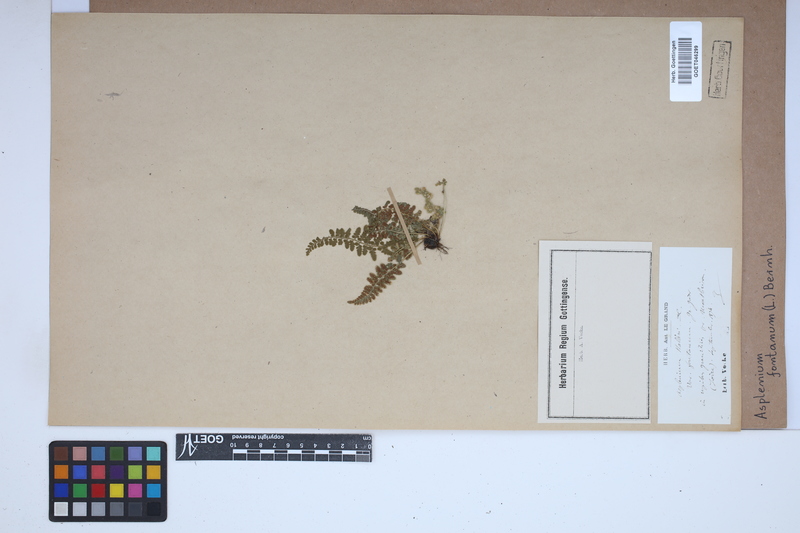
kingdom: Plantae
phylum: Tracheophyta
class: Polypodiopsida
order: Polypodiales
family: Aspleniaceae
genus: Asplenium
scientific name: Asplenium fontanum
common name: Fountain spleenwort
